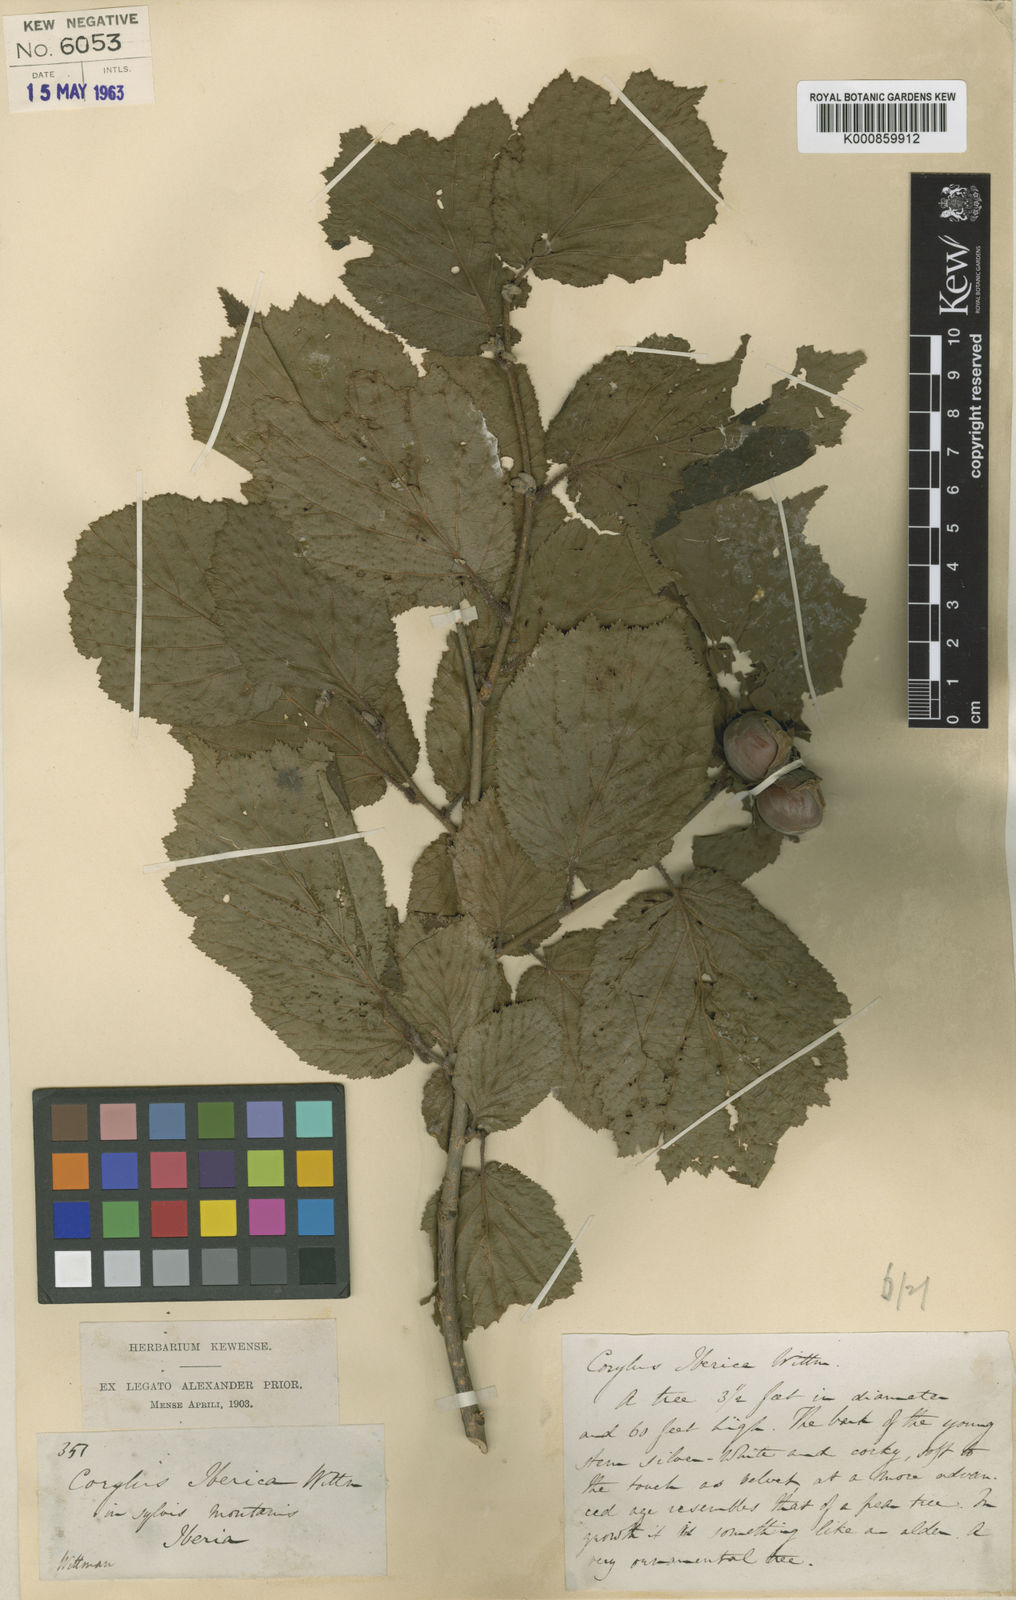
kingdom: Plantae
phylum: Tracheophyta
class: Magnoliopsida
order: Fagales
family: Betulaceae
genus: Corylus
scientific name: Corylus
